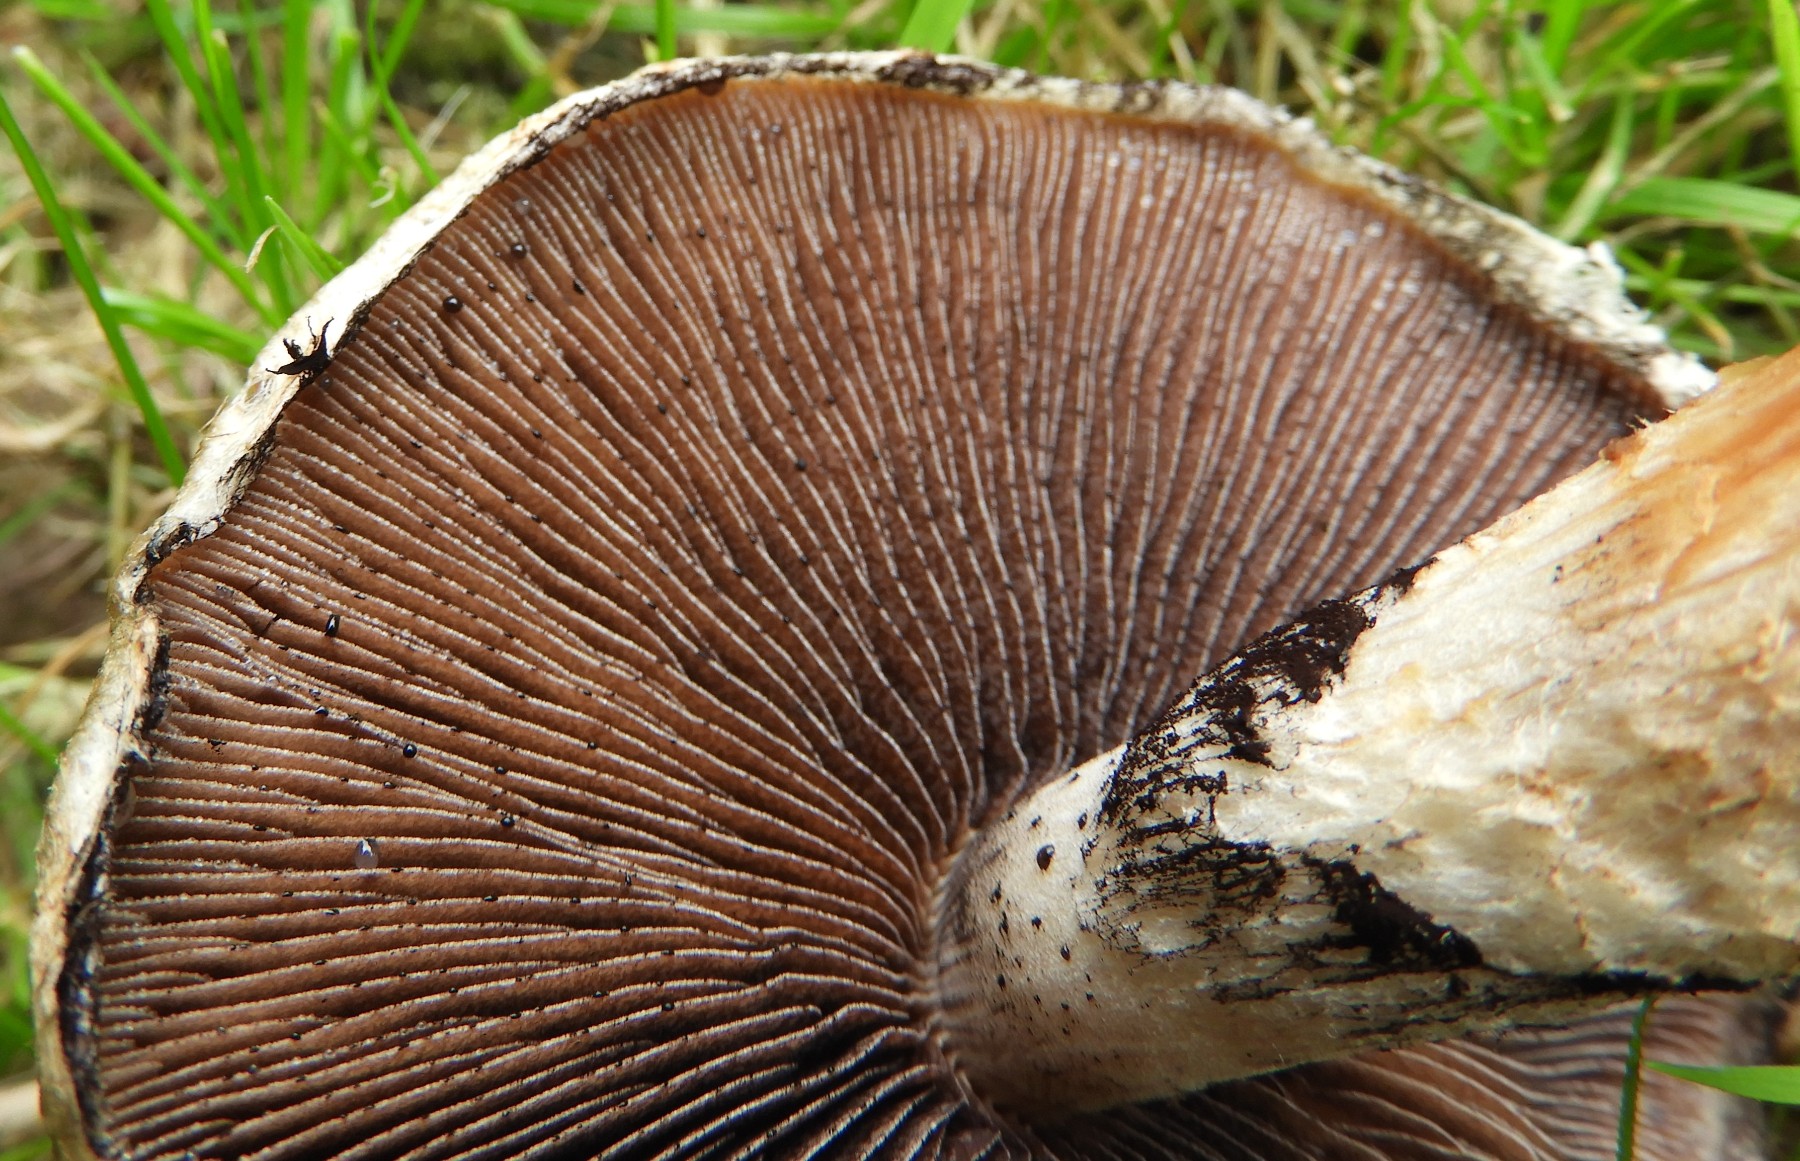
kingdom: Fungi
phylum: Basidiomycota
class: Agaricomycetes
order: Agaricales
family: Psathyrellaceae
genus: Lacrymaria
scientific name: Lacrymaria lacrymabunda
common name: grædende mørkhat
